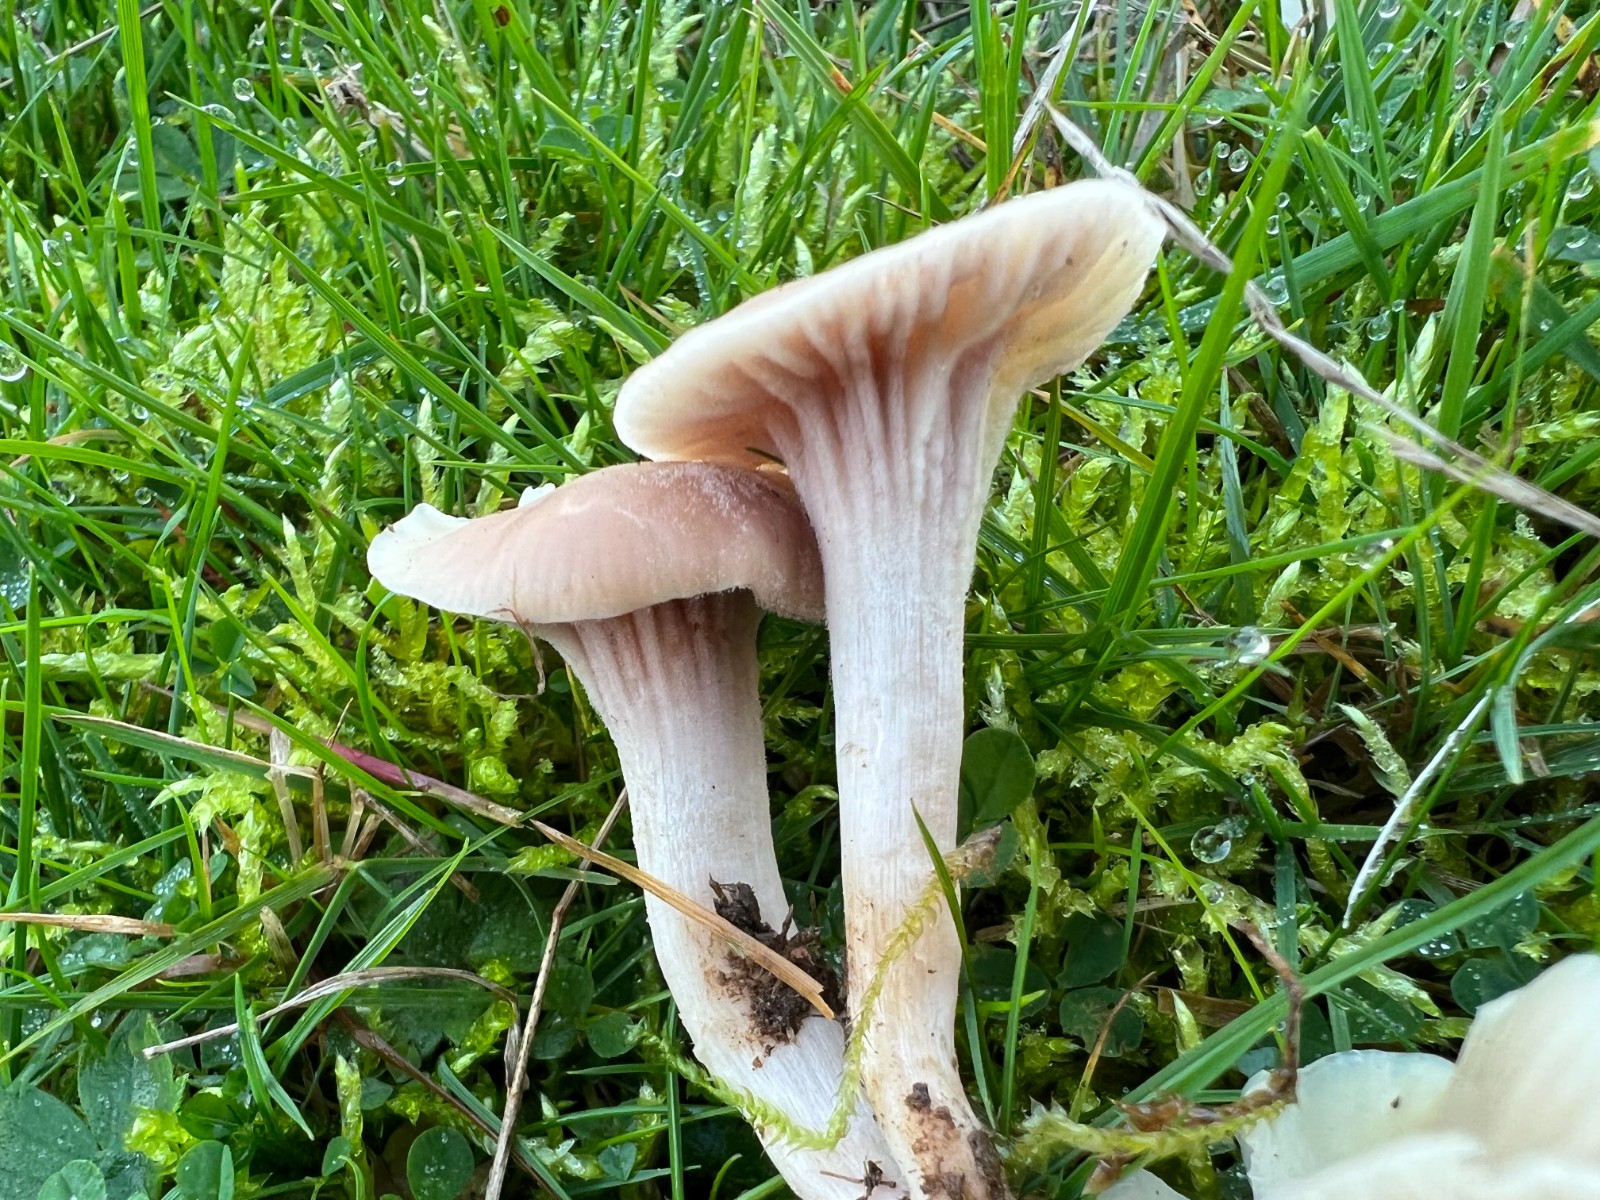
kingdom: Fungi
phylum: Ascomycota
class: Sordariomycetes
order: Hypocreales
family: Clavicipitaceae
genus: Marquandomyces
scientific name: Marquandomyces marquandii
